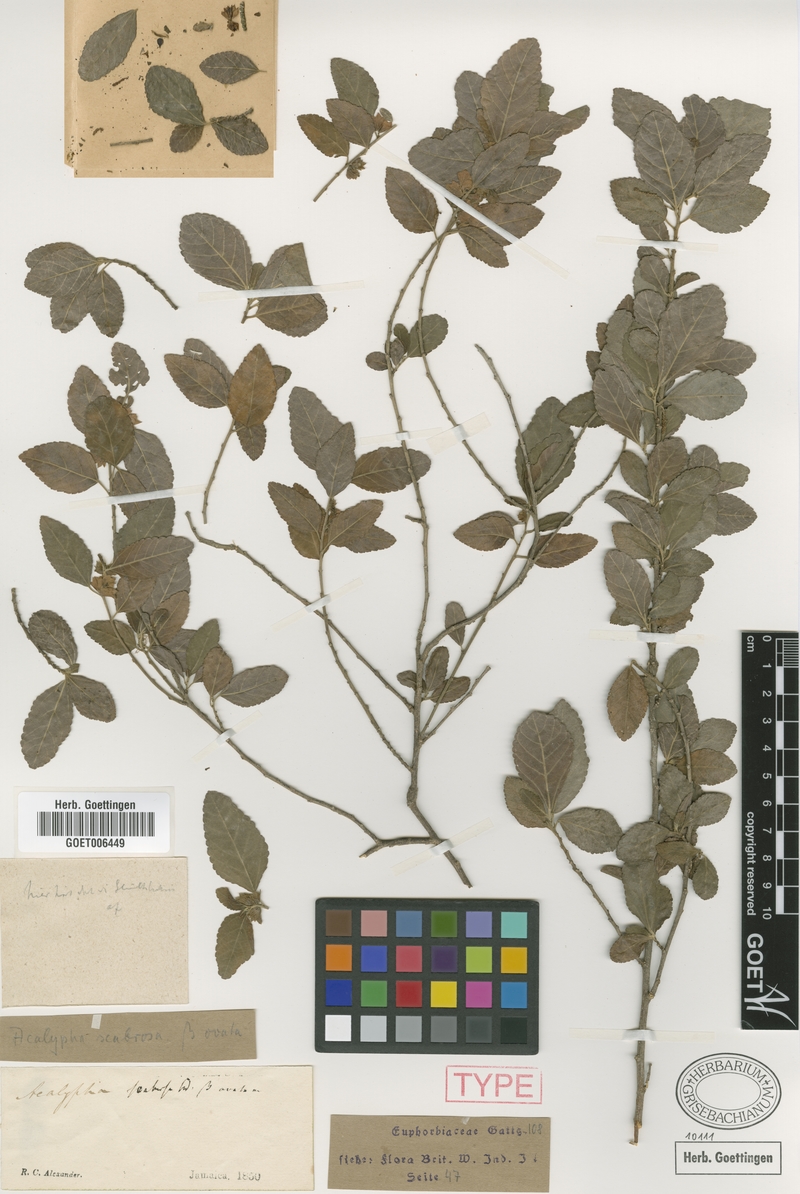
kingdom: Plantae
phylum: Tracheophyta
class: Magnoliopsida
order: Malpighiales
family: Euphorbiaceae
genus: Acalypha
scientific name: Acalypha scabrosa
